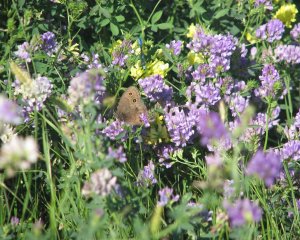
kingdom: Animalia
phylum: Arthropoda
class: Insecta
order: Lepidoptera
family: Nymphalidae
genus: Cercyonis
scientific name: Cercyonis pegala
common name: Common Wood-Nymph
